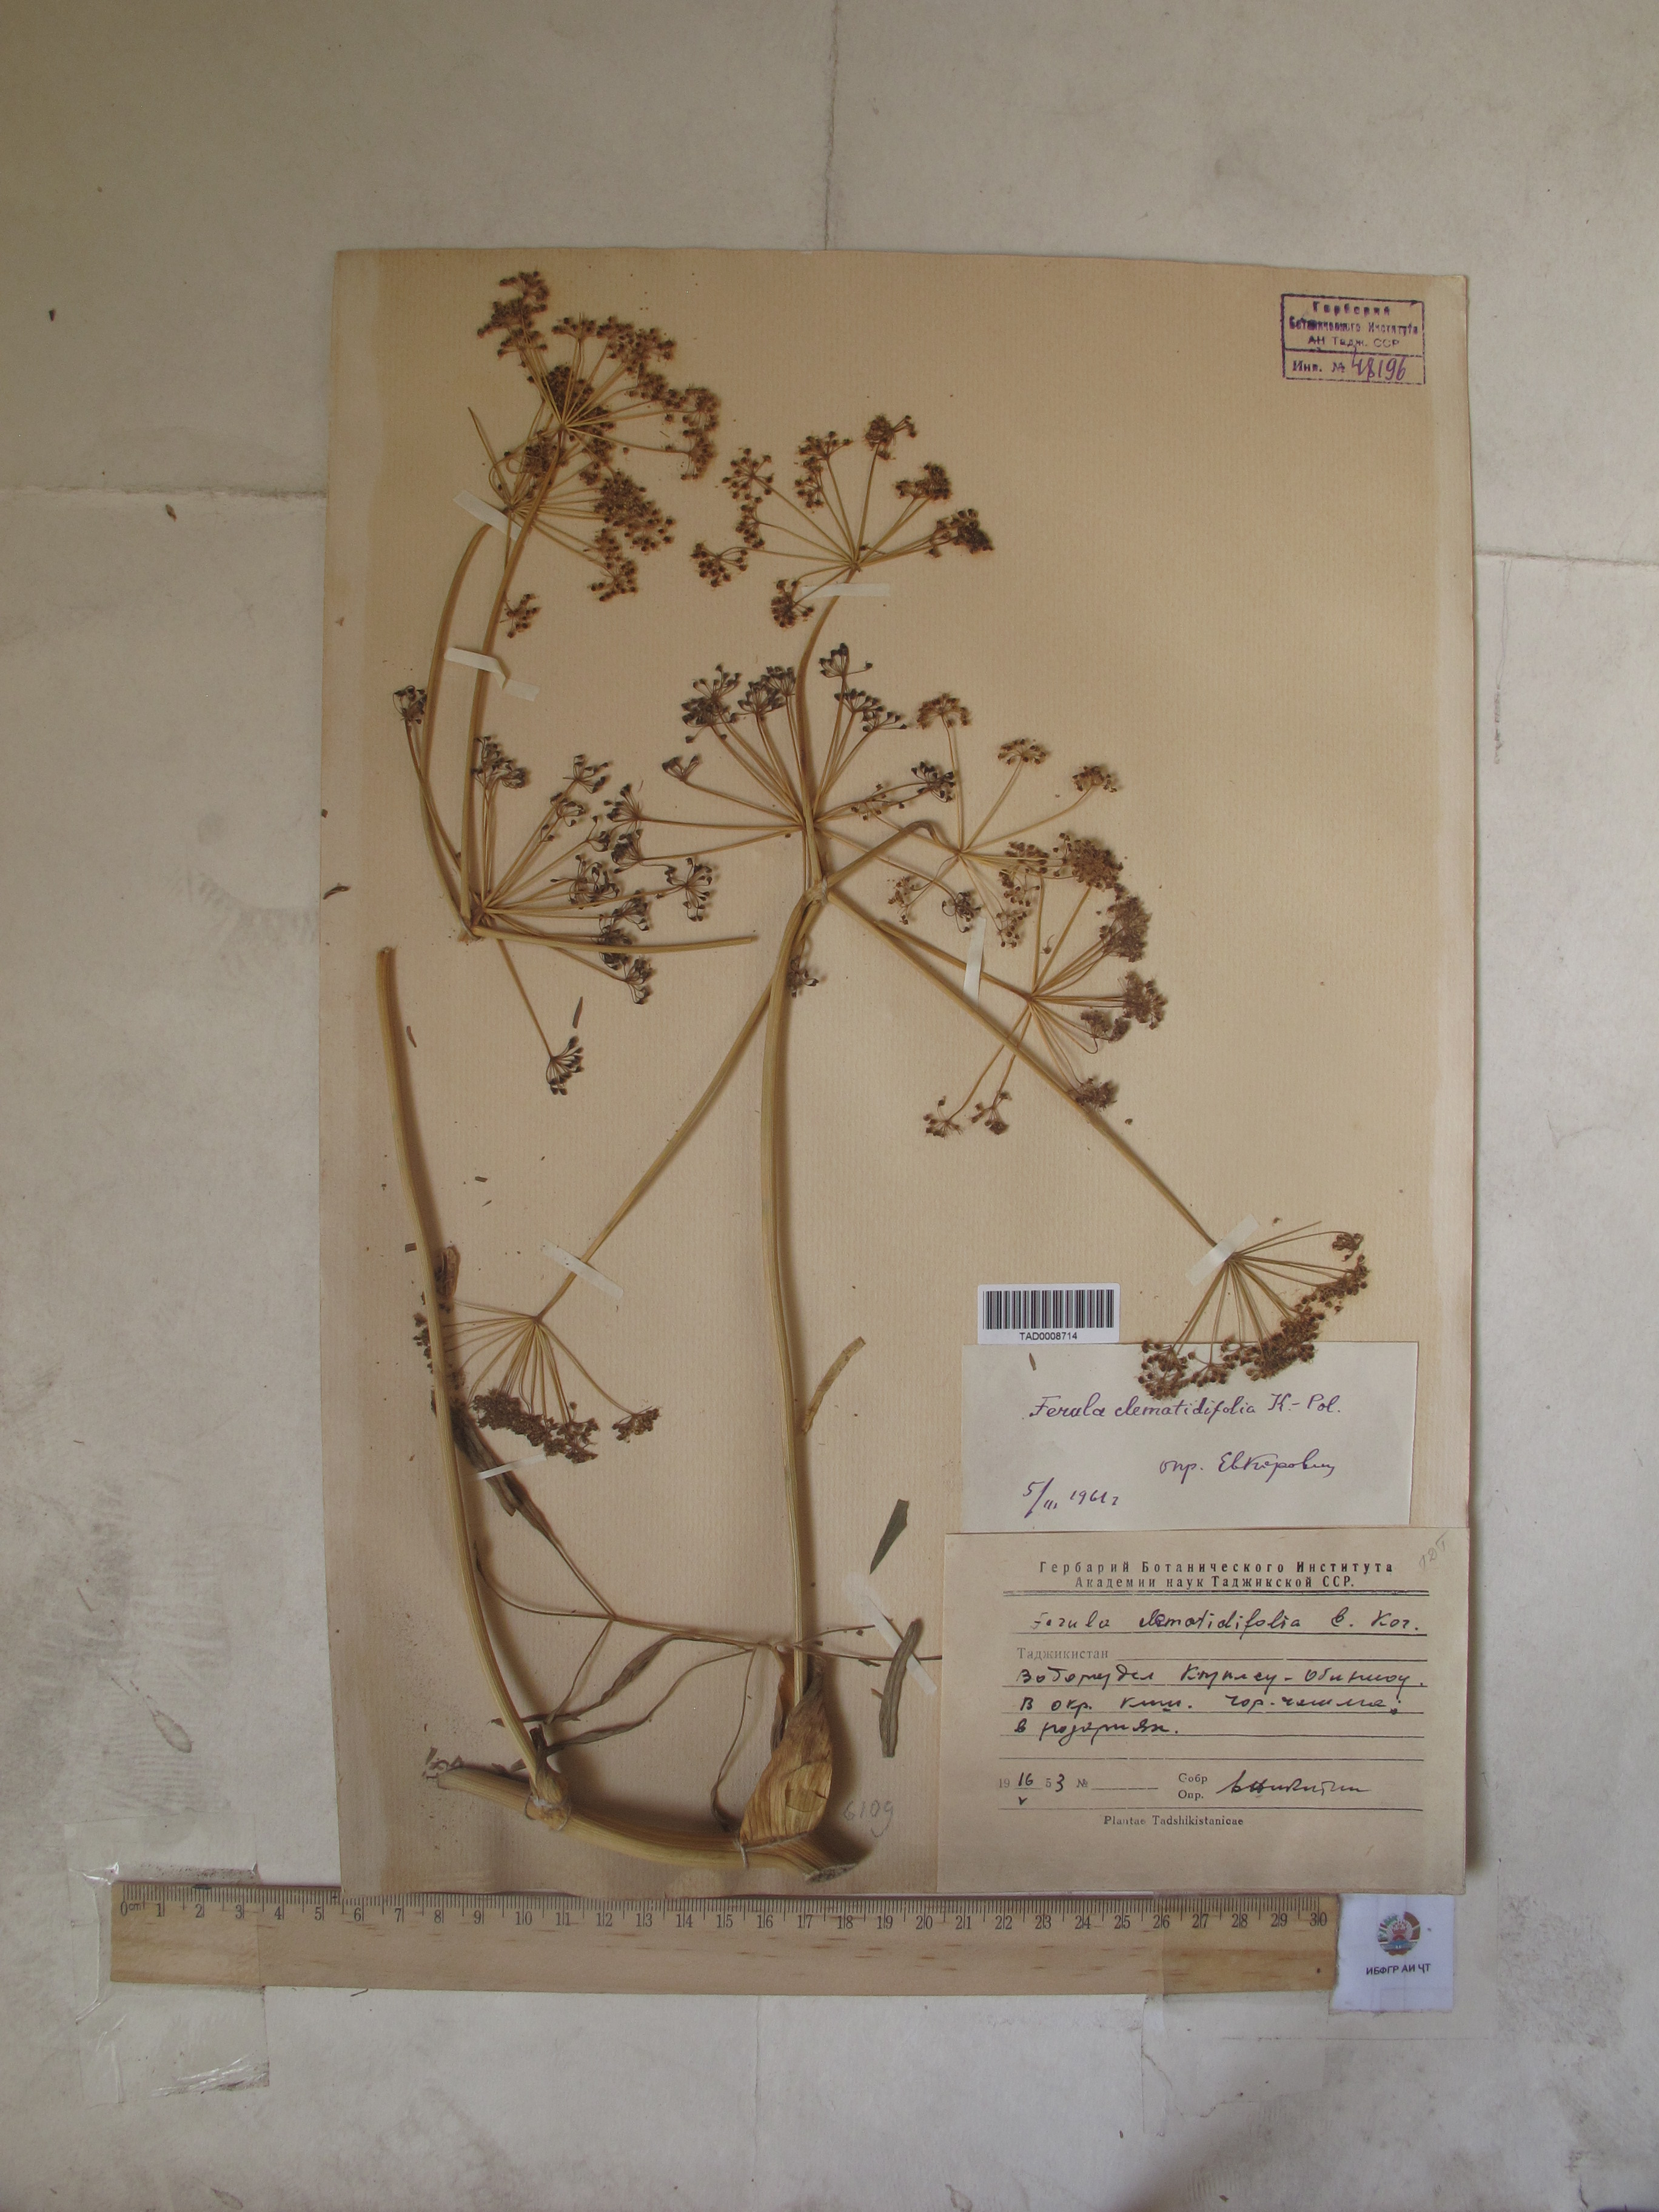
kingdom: Plantae
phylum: Tracheophyta
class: Magnoliopsida
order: Apiales
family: Apiaceae
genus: Ferula
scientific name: Ferula clematidifolia
